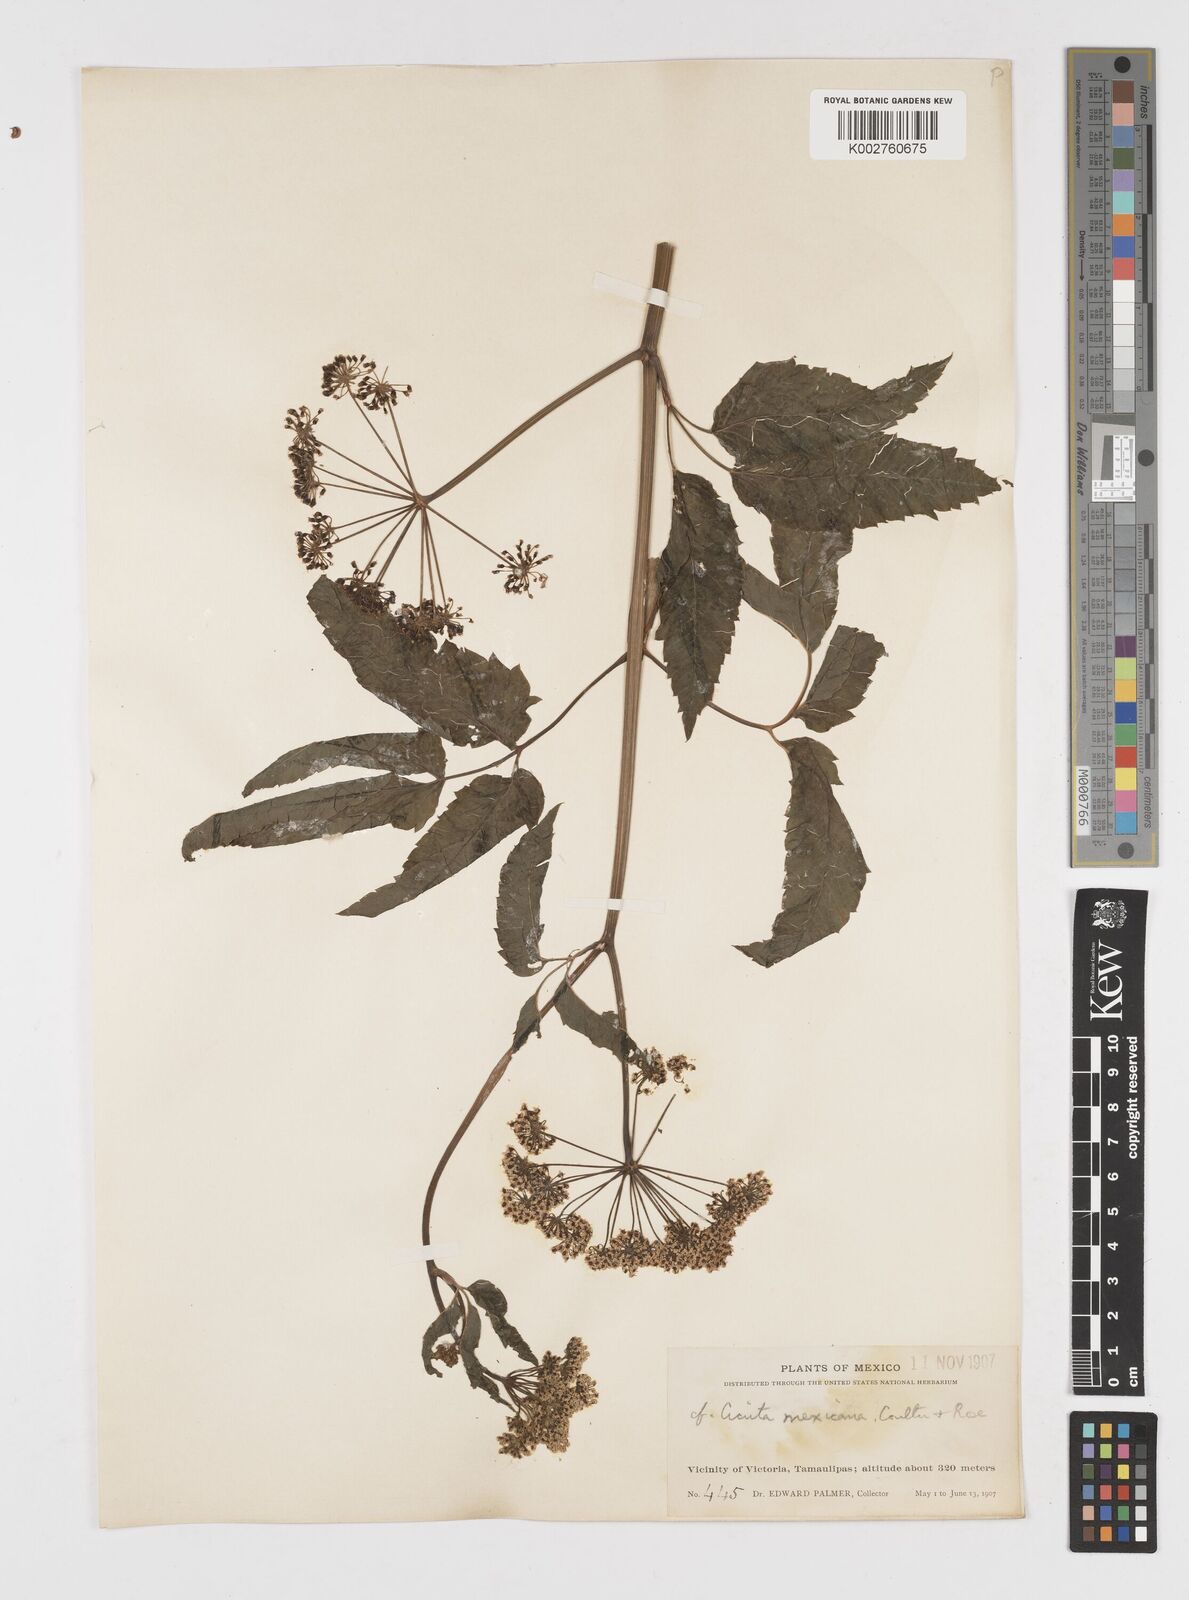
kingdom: Plantae
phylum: Tracheophyta
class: Magnoliopsida
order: Apiales
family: Apiaceae
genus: Cicuta
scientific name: Cicuta douglasii
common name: Western water-hemlock
